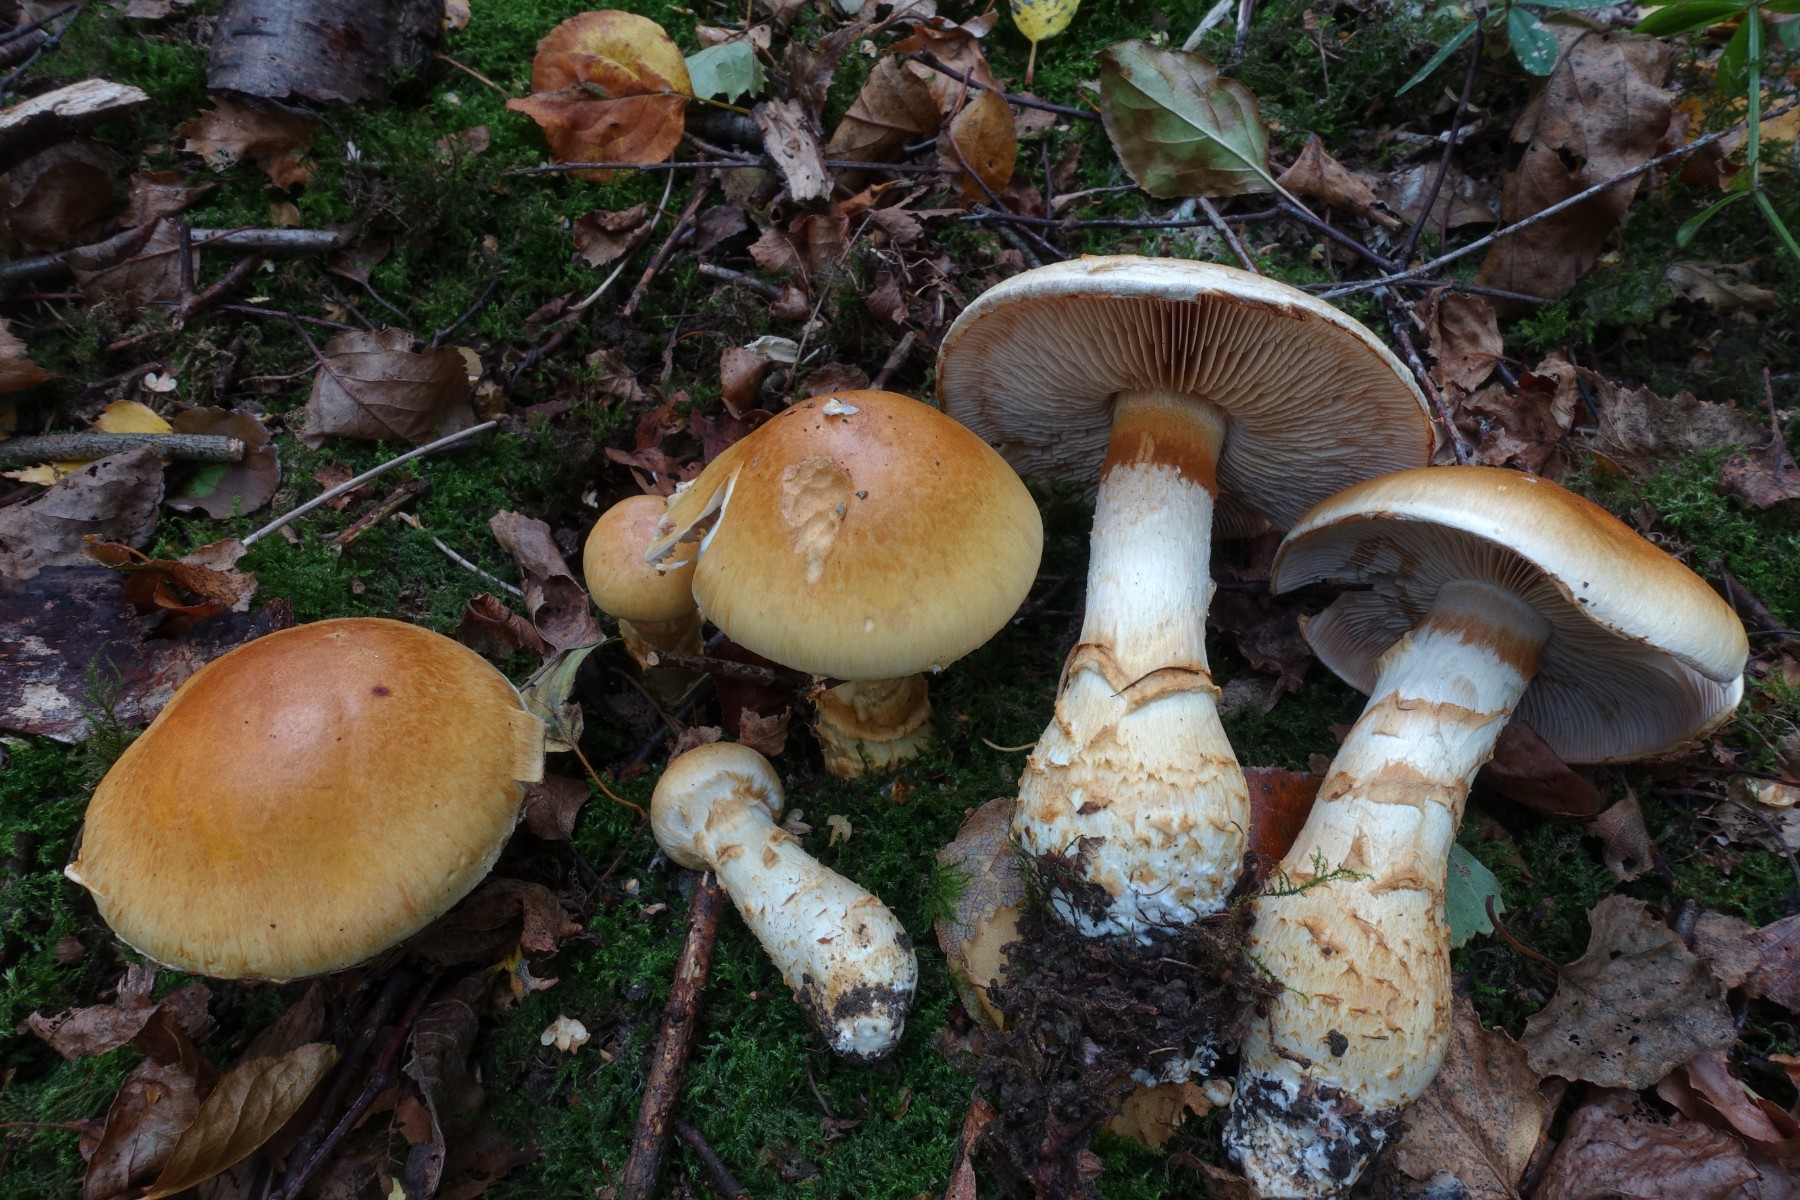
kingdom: Fungi
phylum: Basidiomycota
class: Agaricomycetes
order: Agaricales
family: Cortinariaceae
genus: Phlegmacium
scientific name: Phlegmacium triumphans
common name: gulbæltet slørhat
